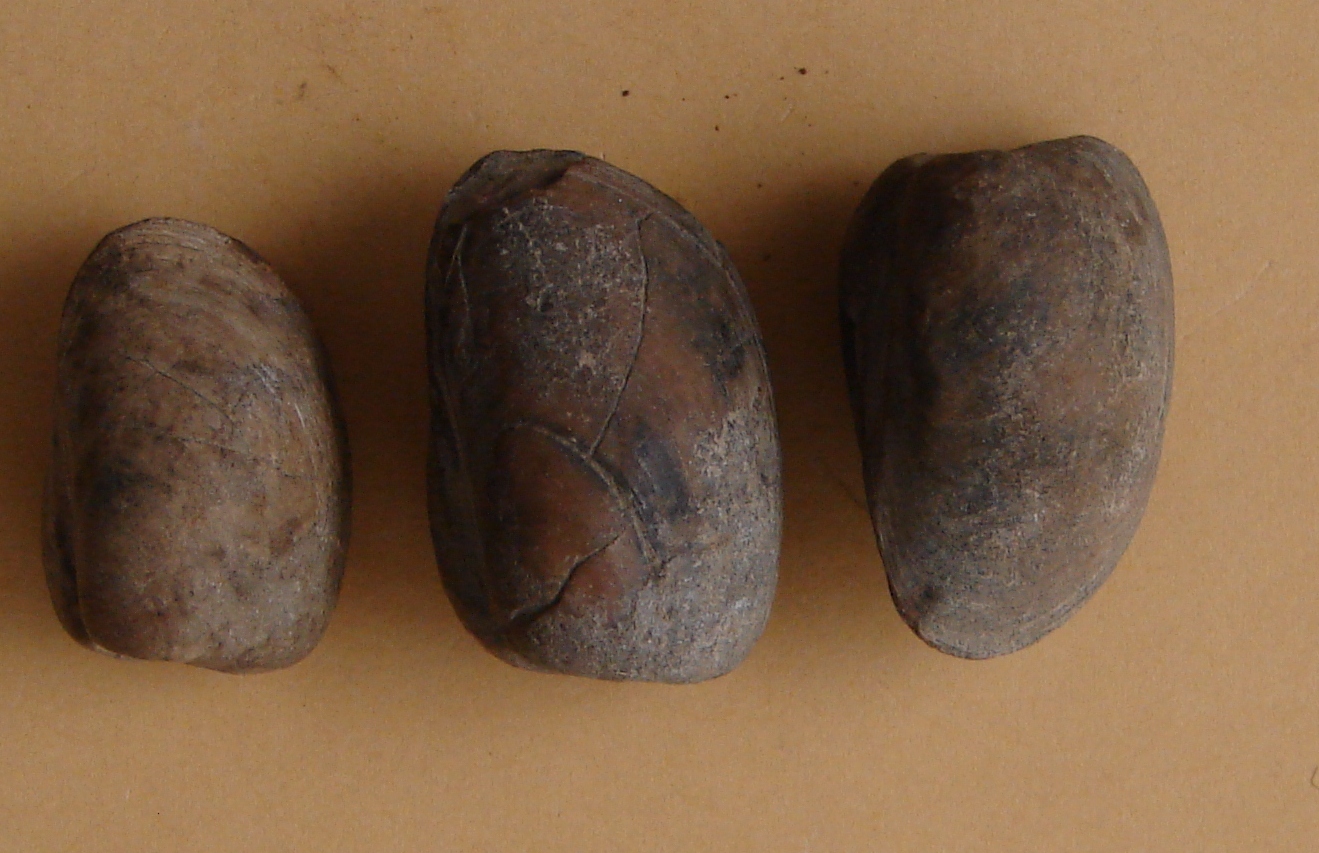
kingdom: Animalia
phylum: Mollusca
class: Bivalvia
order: Nuculida
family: Nuculidae
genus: Palaeonucula
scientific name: Palaeonucula hammeri
